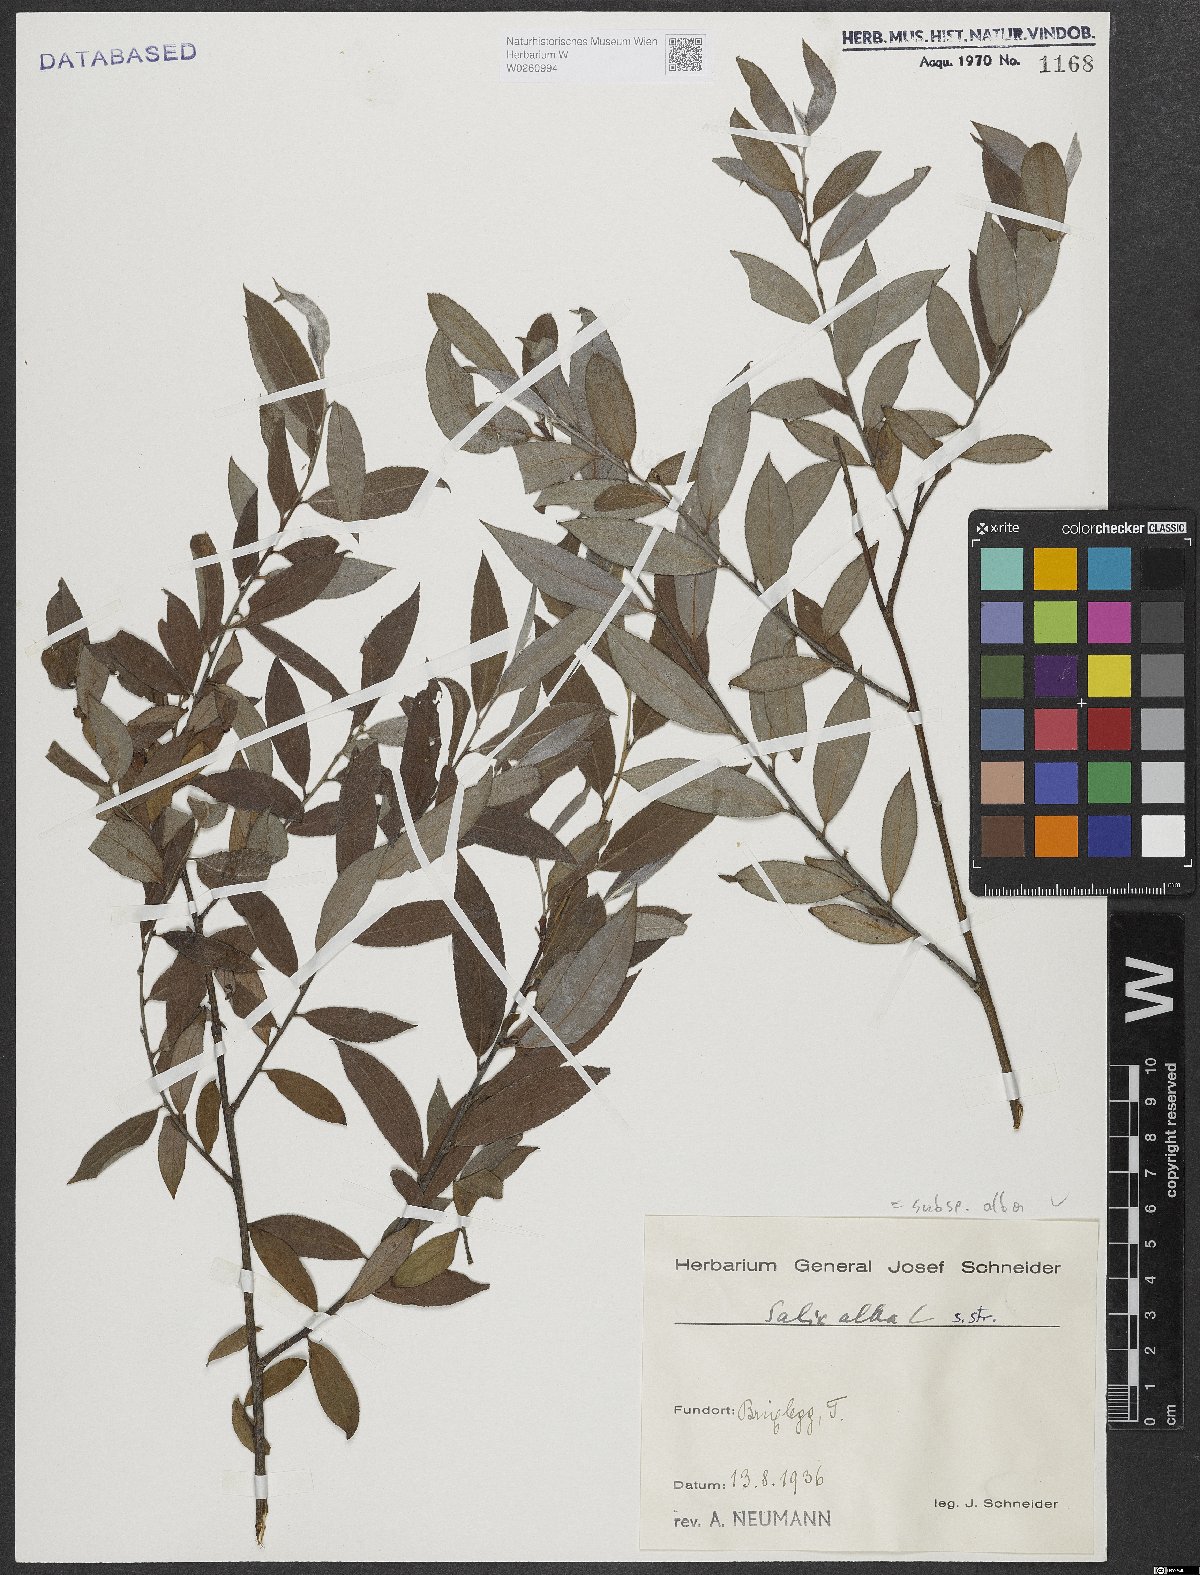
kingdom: Plantae
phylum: Tracheophyta
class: Magnoliopsida
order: Malpighiales
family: Salicaceae
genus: Salix
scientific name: Salix alba
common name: White willow
